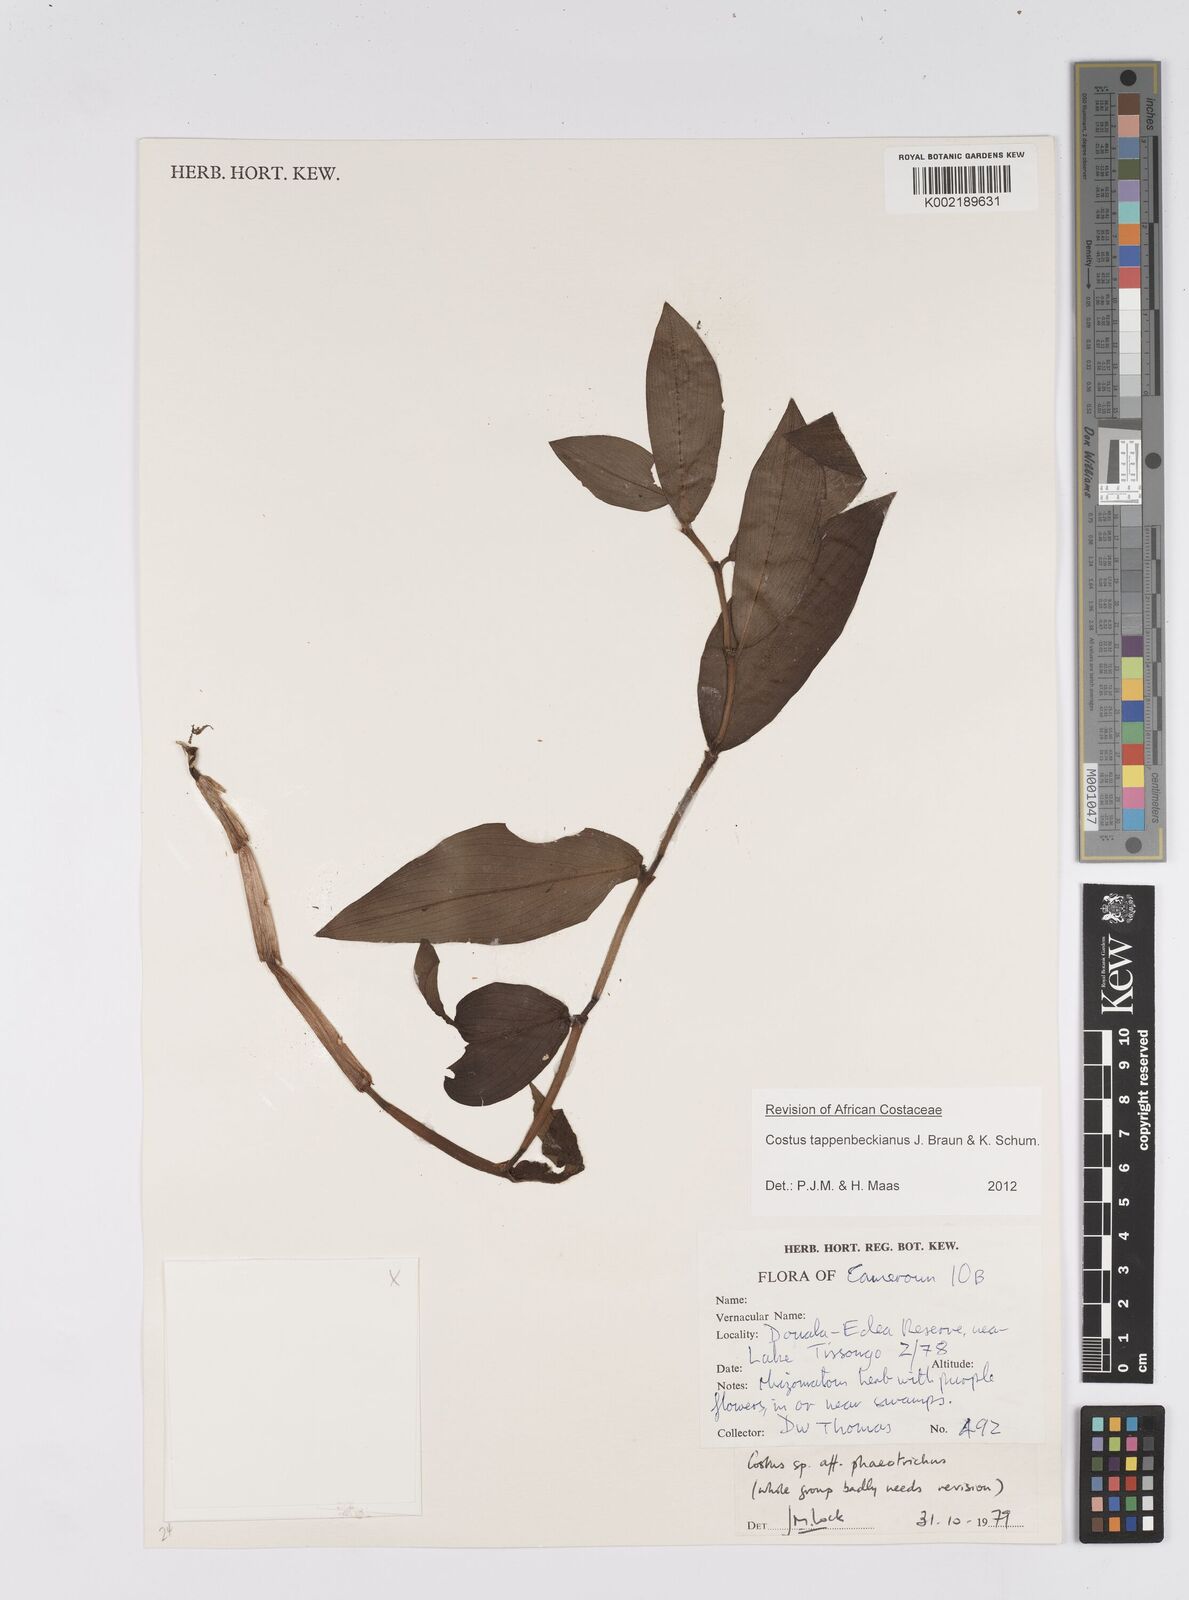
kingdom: Plantae
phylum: Tracheophyta
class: Liliopsida
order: Zingiberales
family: Costaceae
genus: Costus
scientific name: Costus tappenbeckianus
